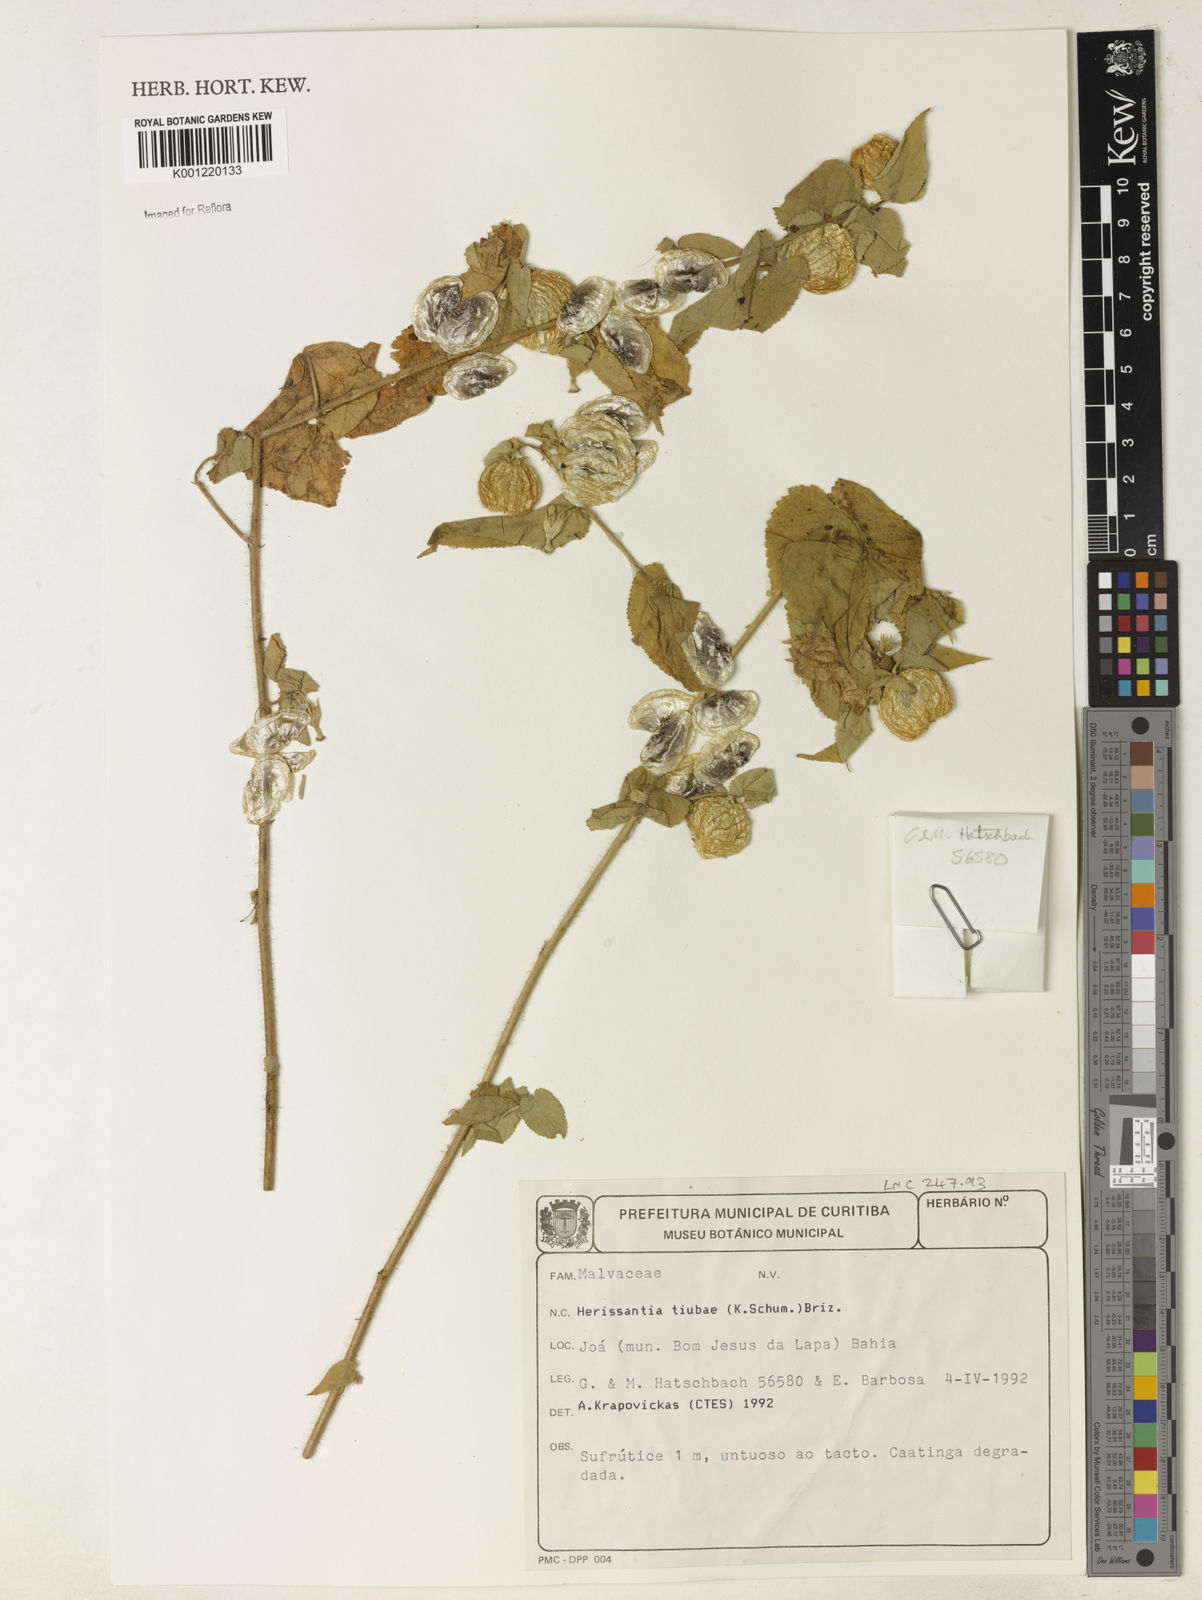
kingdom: Plantae
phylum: Tracheophyta
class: Magnoliopsida
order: Malvales
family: Malvaceae
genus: Herissantia
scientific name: Herissantia tiubae
